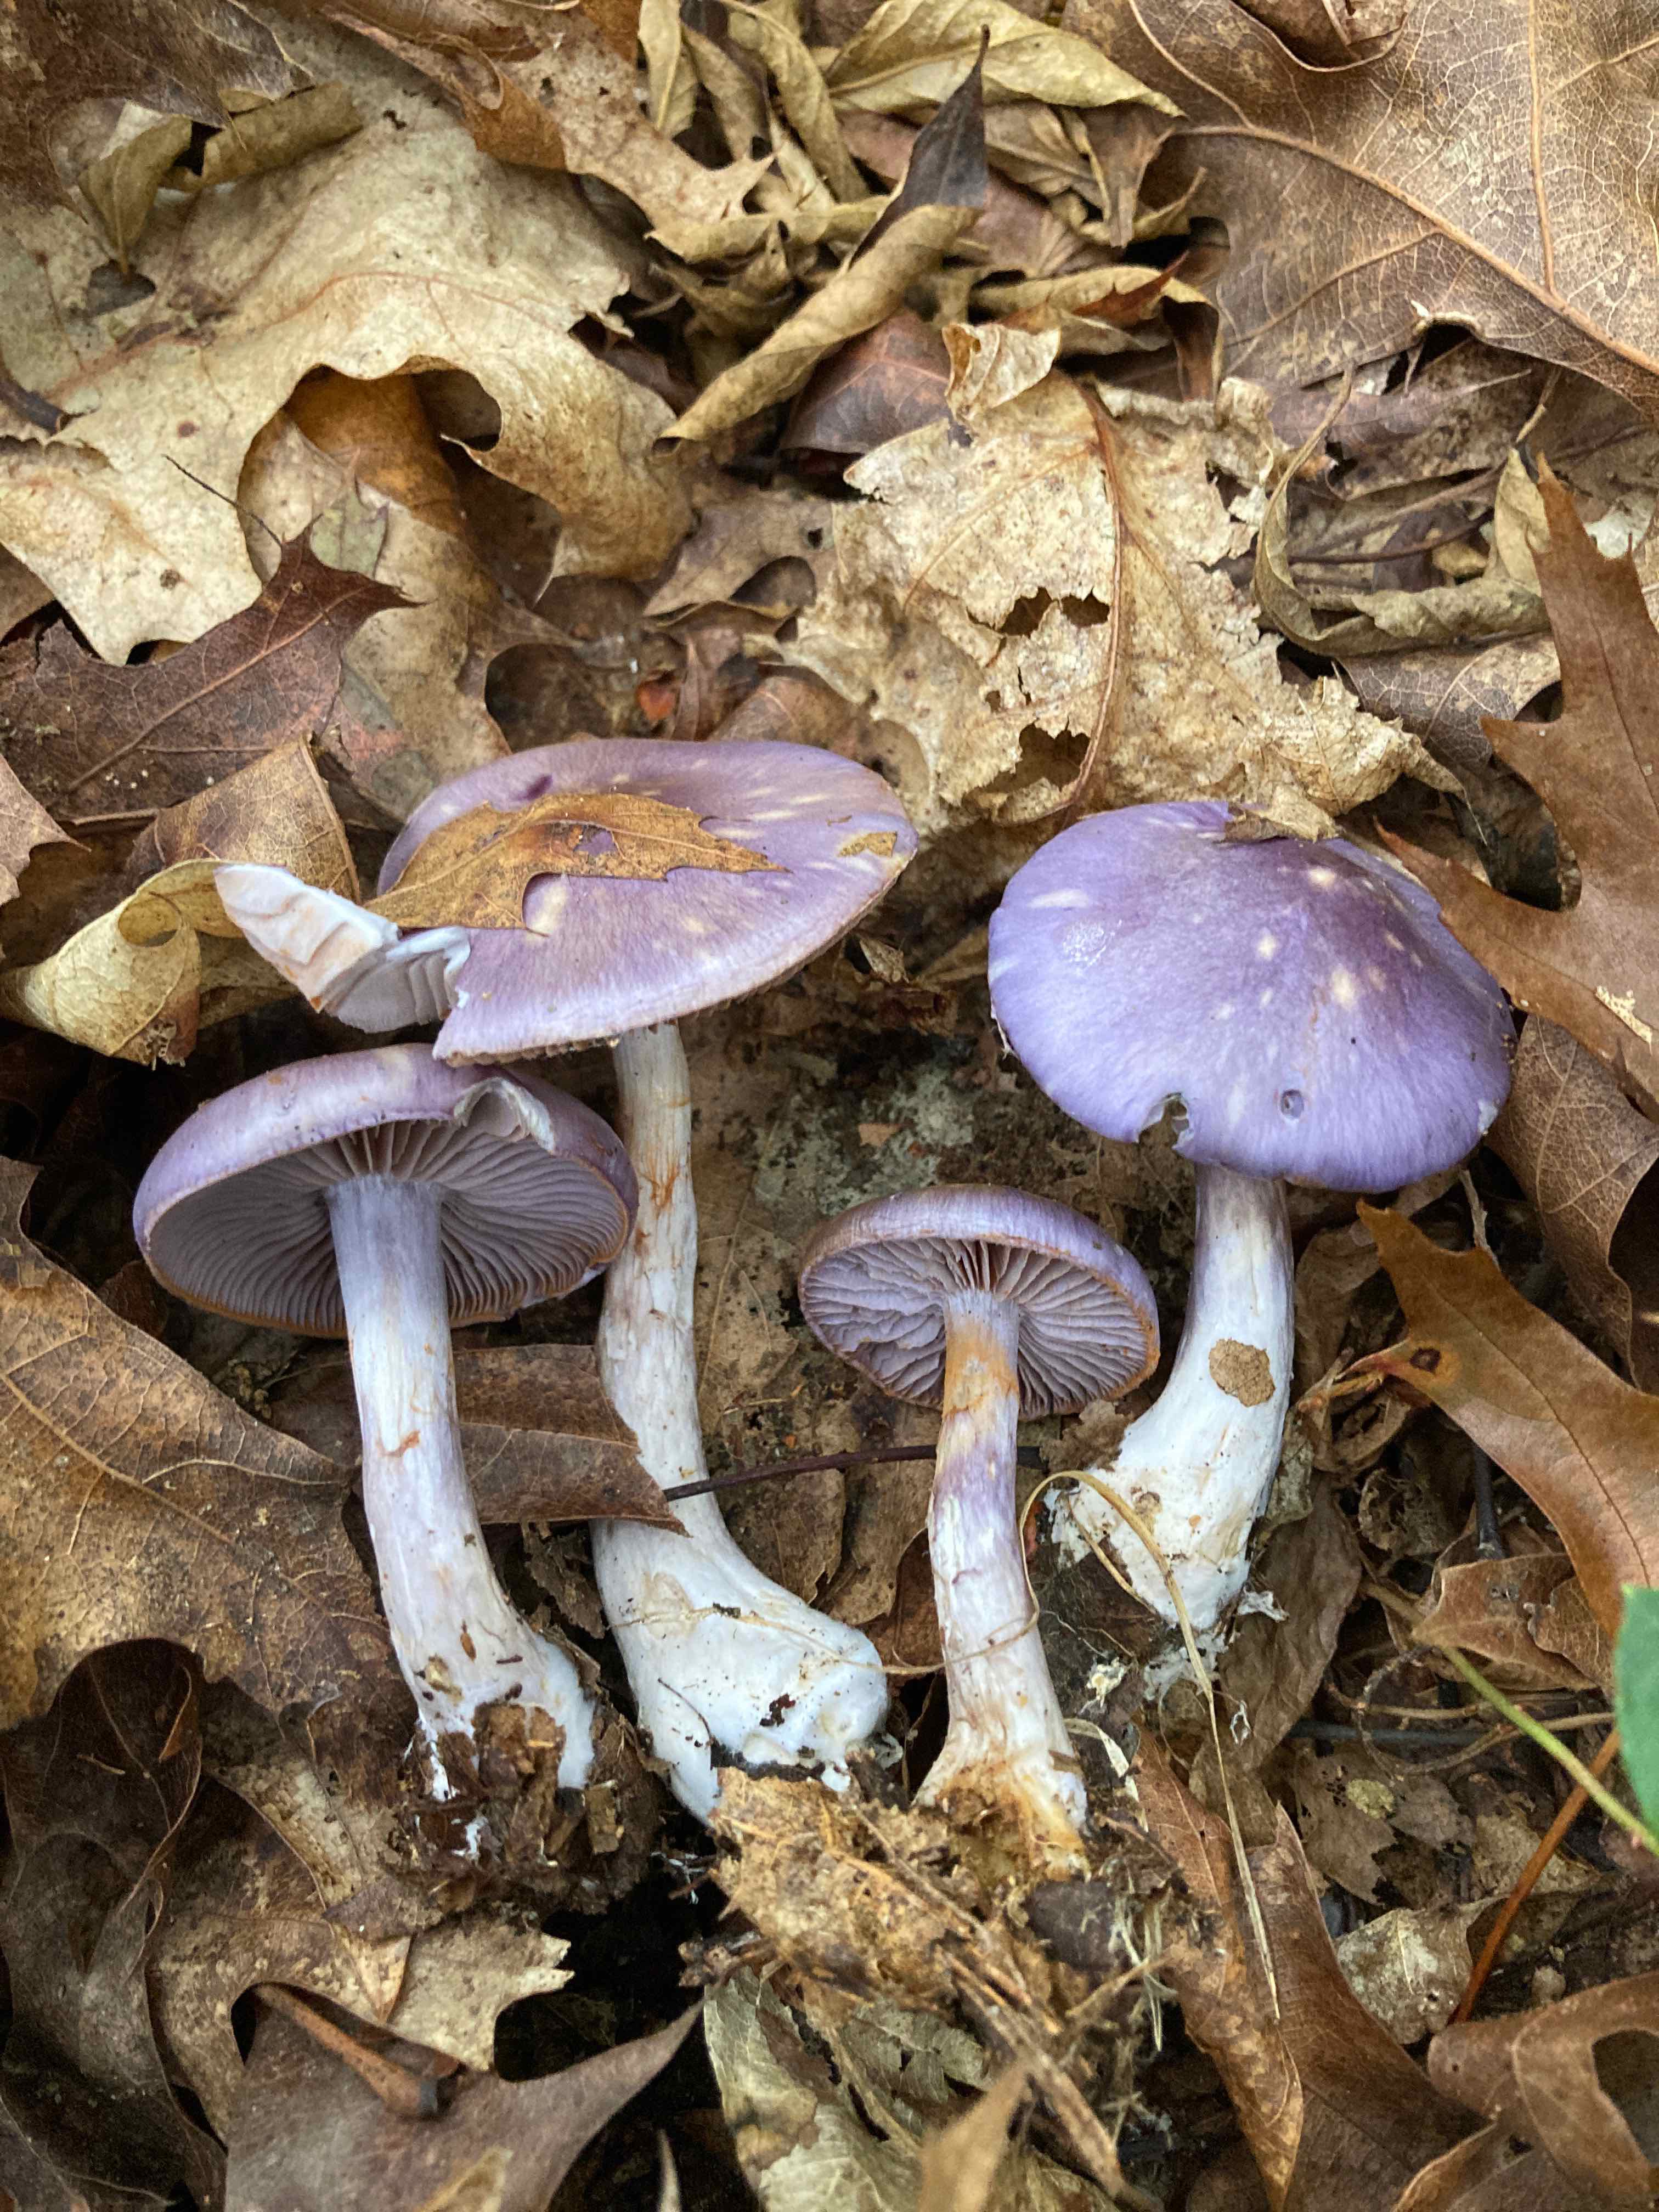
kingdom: Fungi
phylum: Basidiomycota
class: Agaricomycetes
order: Agaricales
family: Cortinariaceae
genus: Cortinarius
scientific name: Cortinarius
